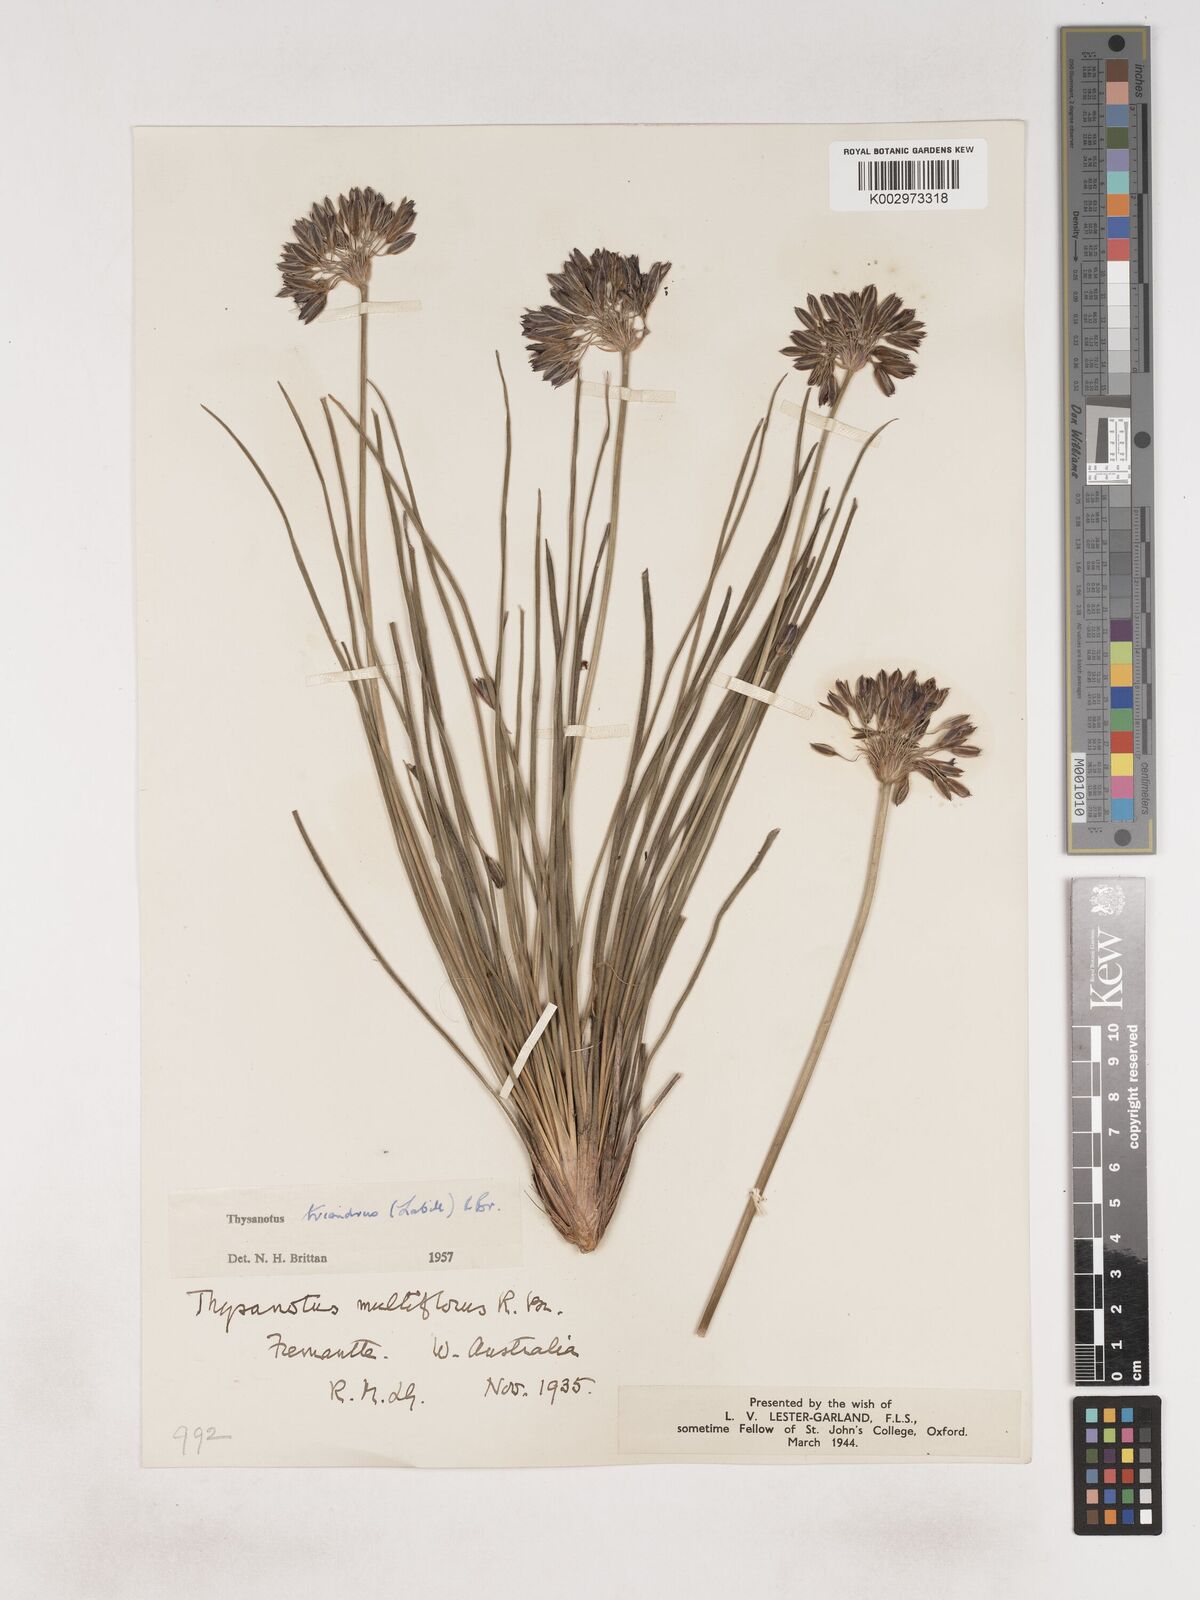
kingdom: Plantae
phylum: Tracheophyta
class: Liliopsida
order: Asparagales
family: Asparagaceae
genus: Thysanotus
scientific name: Thysanotus triandrus
